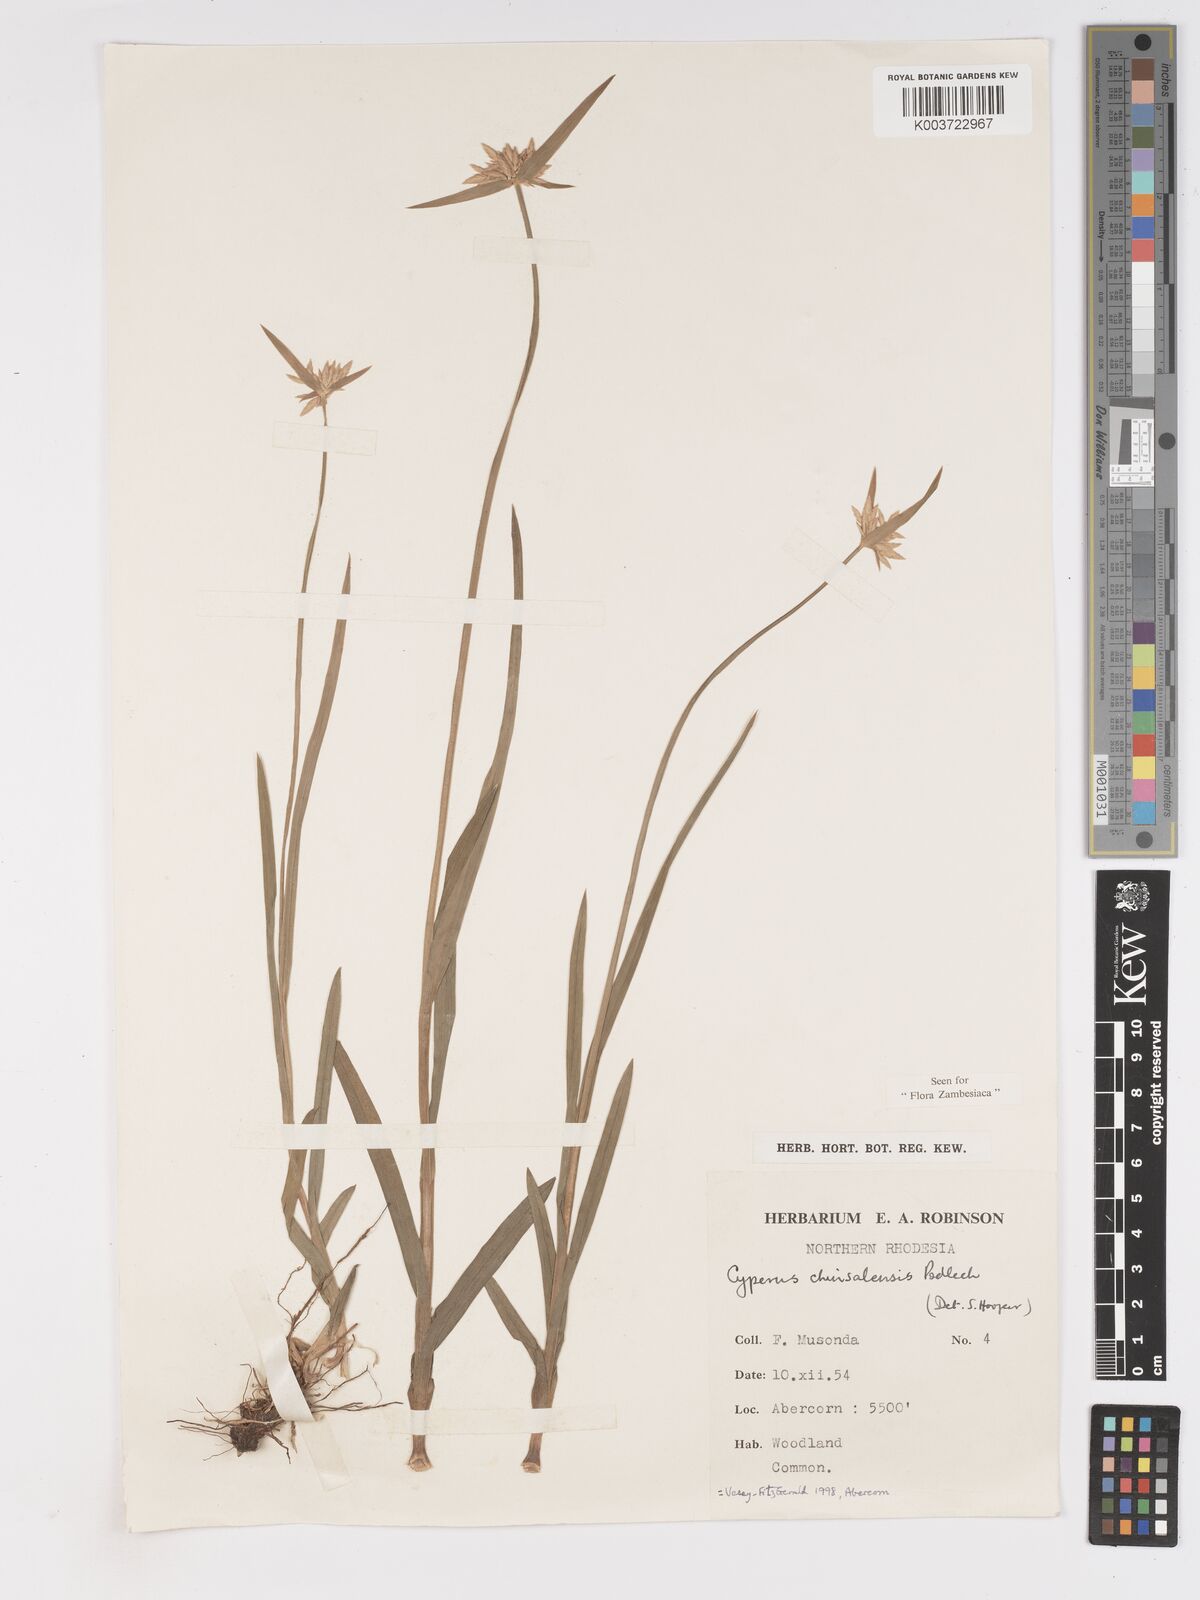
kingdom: Plantae
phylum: Tracheophyta
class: Liliopsida
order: Poales
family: Cyperaceae
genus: Cyperus
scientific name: Cyperus chinsalensis
